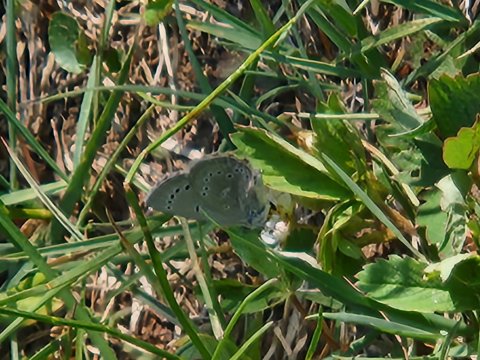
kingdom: Animalia
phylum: Arthropoda
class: Insecta
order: Lepidoptera
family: Lycaenidae
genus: Glaucopsyche
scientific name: Glaucopsyche lygdamus
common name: Silvery Blue
